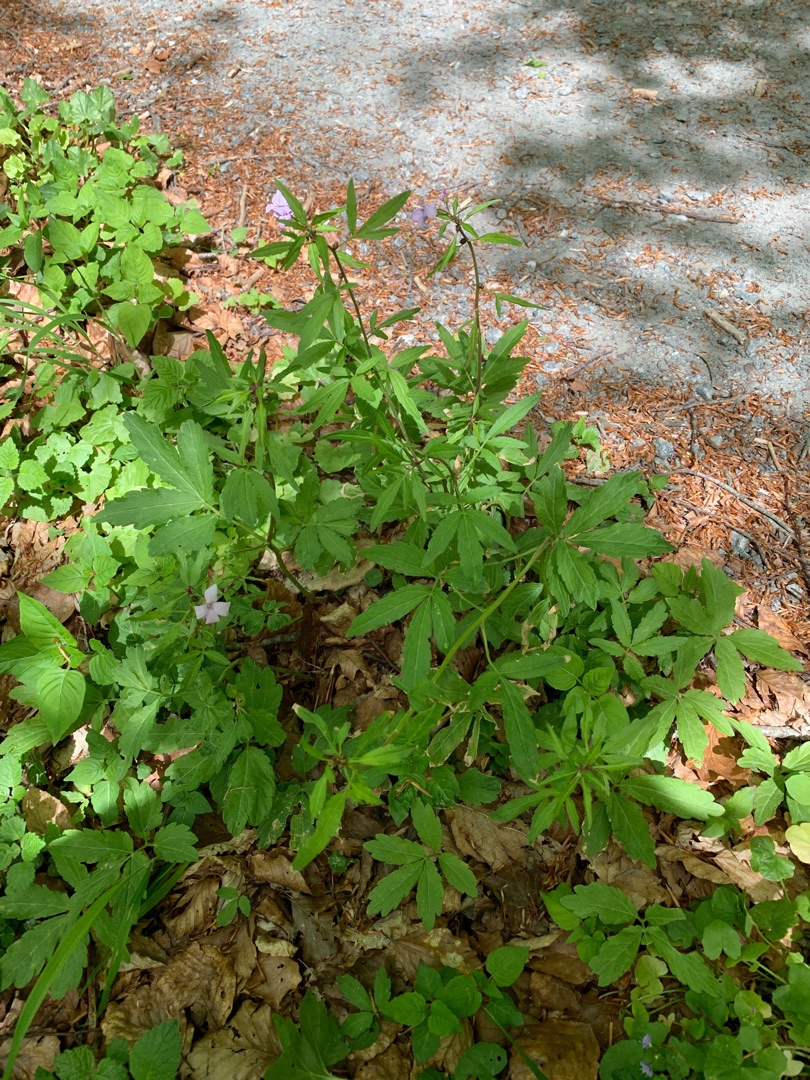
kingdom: Plantae
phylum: Tracheophyta
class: Magnoliopsida
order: Brassicales
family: Brassicaceae
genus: Cardamine
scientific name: Cardamine bulbifera
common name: Tandrod
